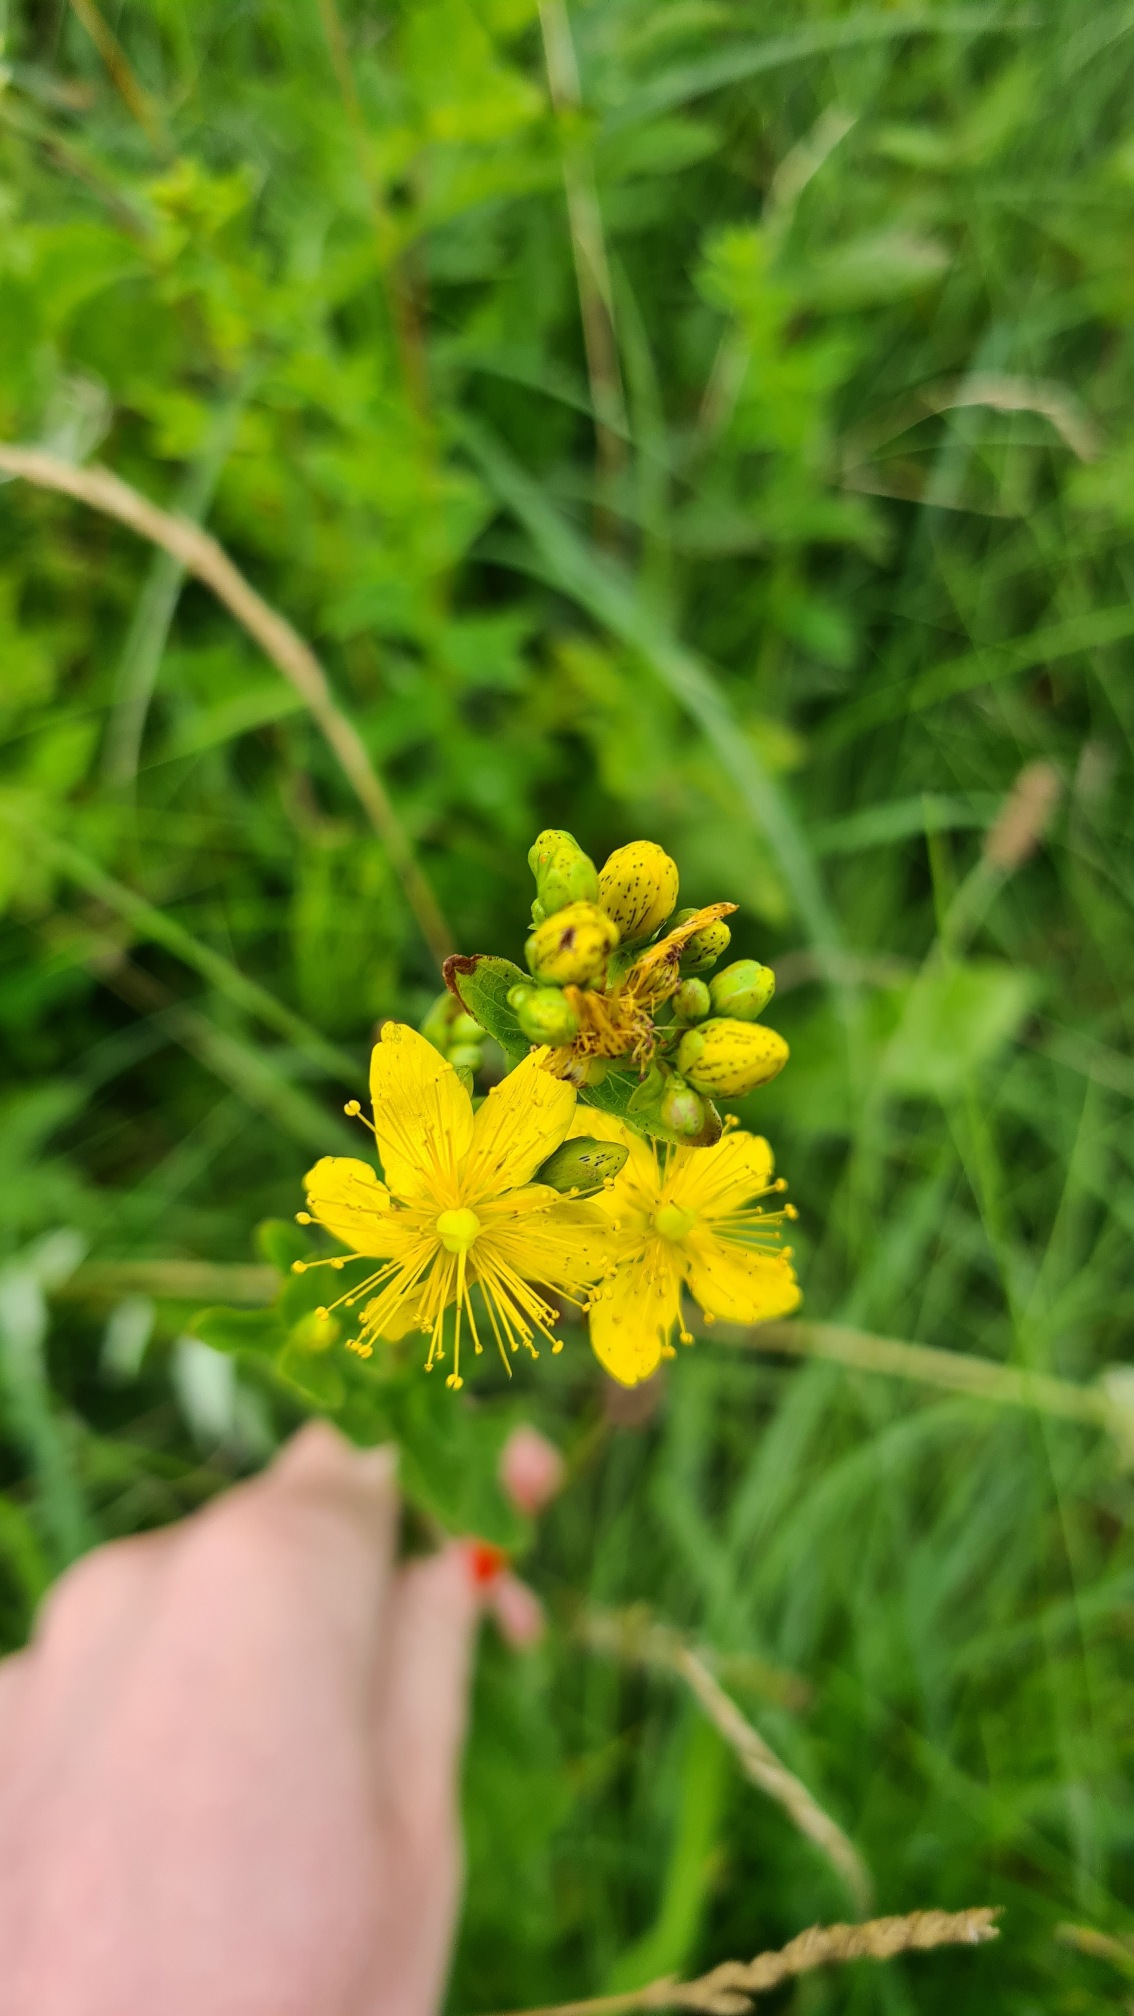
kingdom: Plantae
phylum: Tracheophyta
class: Magnoliopsida
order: Malpighiales
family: Hypericaceae
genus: Hypericum
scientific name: Hypericum maculatum
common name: Kantet perikon
